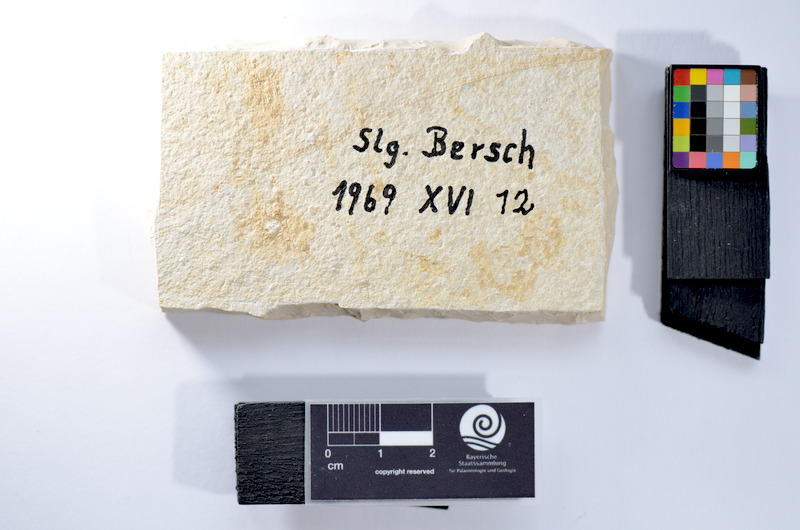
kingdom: Animalia
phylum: Chordata
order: Salmoniformes
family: Orthogonikleithridae
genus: Leptolepides
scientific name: Leptolepides
